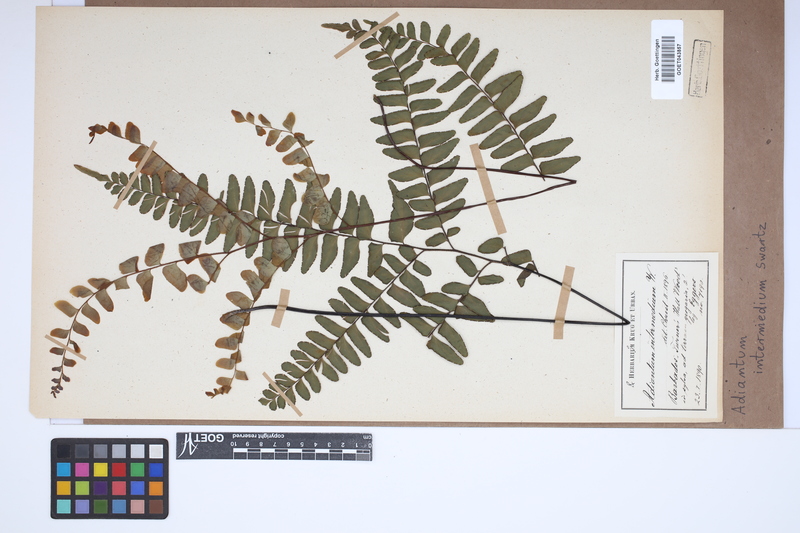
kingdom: Plantae
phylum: Tracheophyta
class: Polypodiopsida
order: Polypodiales
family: Pteridaceae
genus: Adiantum
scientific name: Adiantum intermedium
